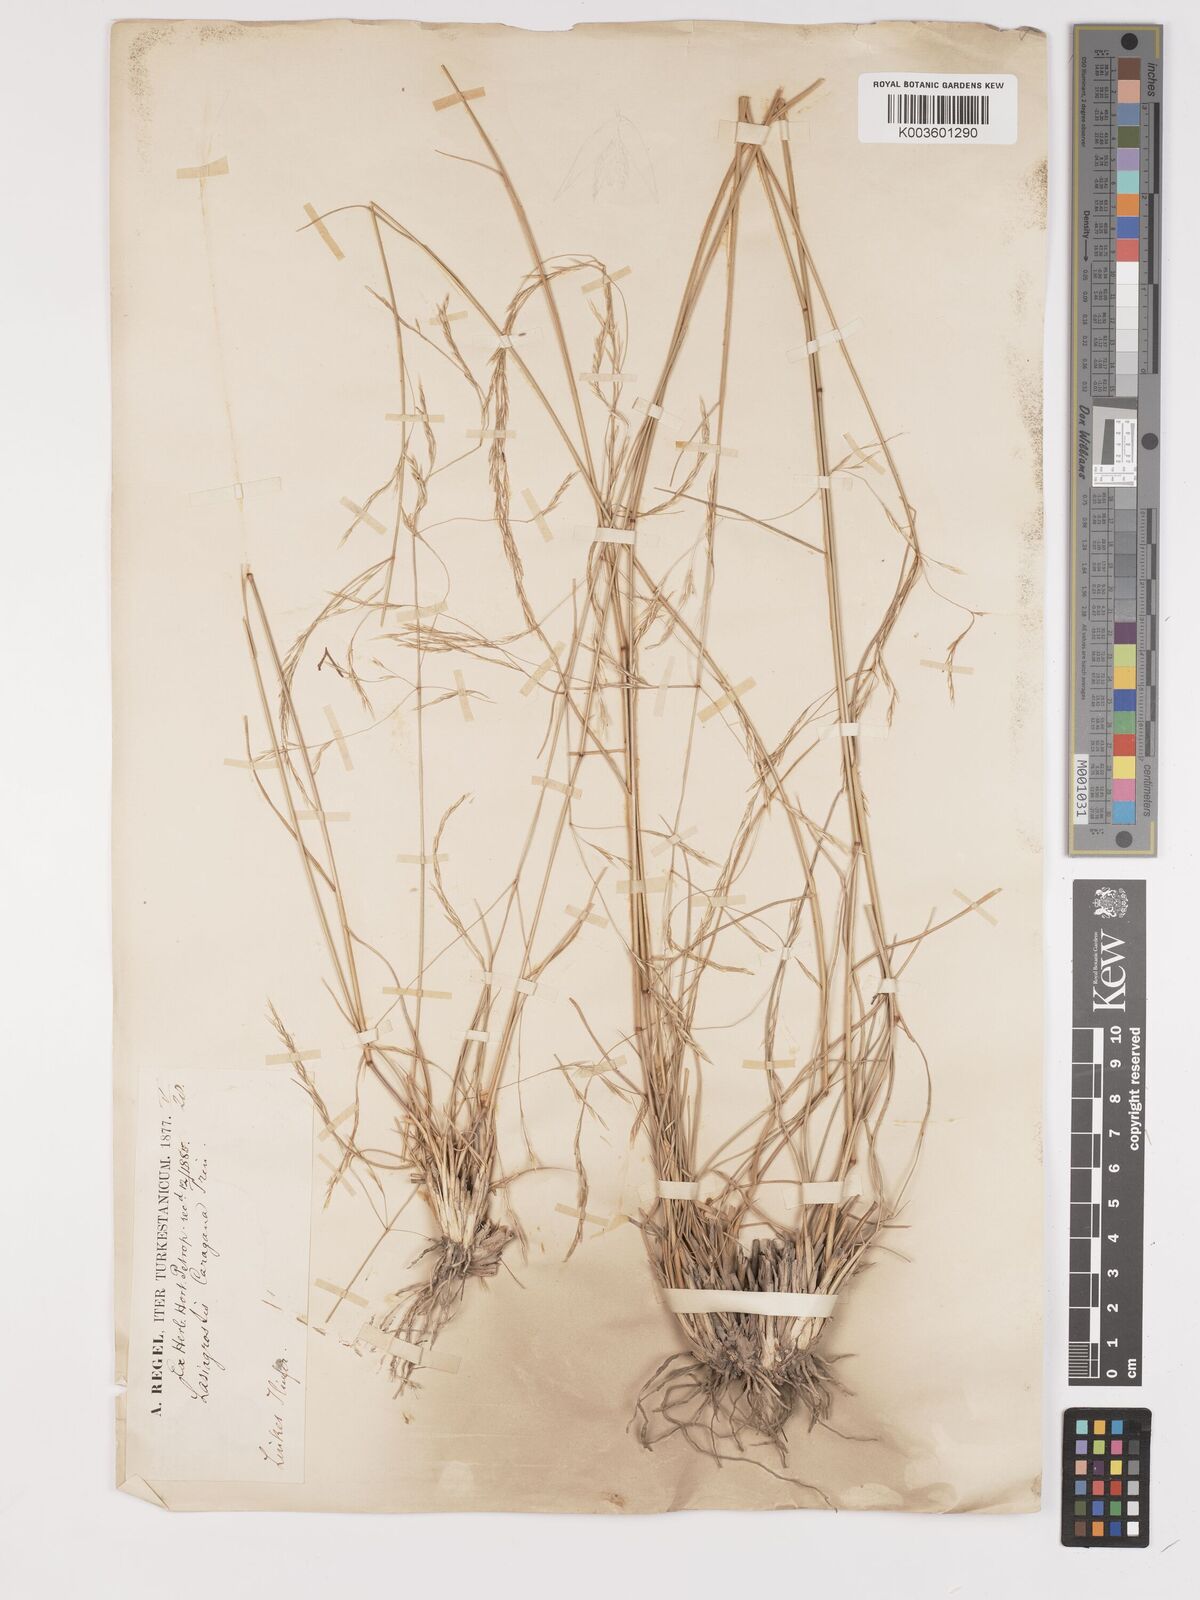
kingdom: Plantae
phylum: Tracheophyta
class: Liliopsida
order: Poales
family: Poaceae
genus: Stipa
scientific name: Stipa conferta
